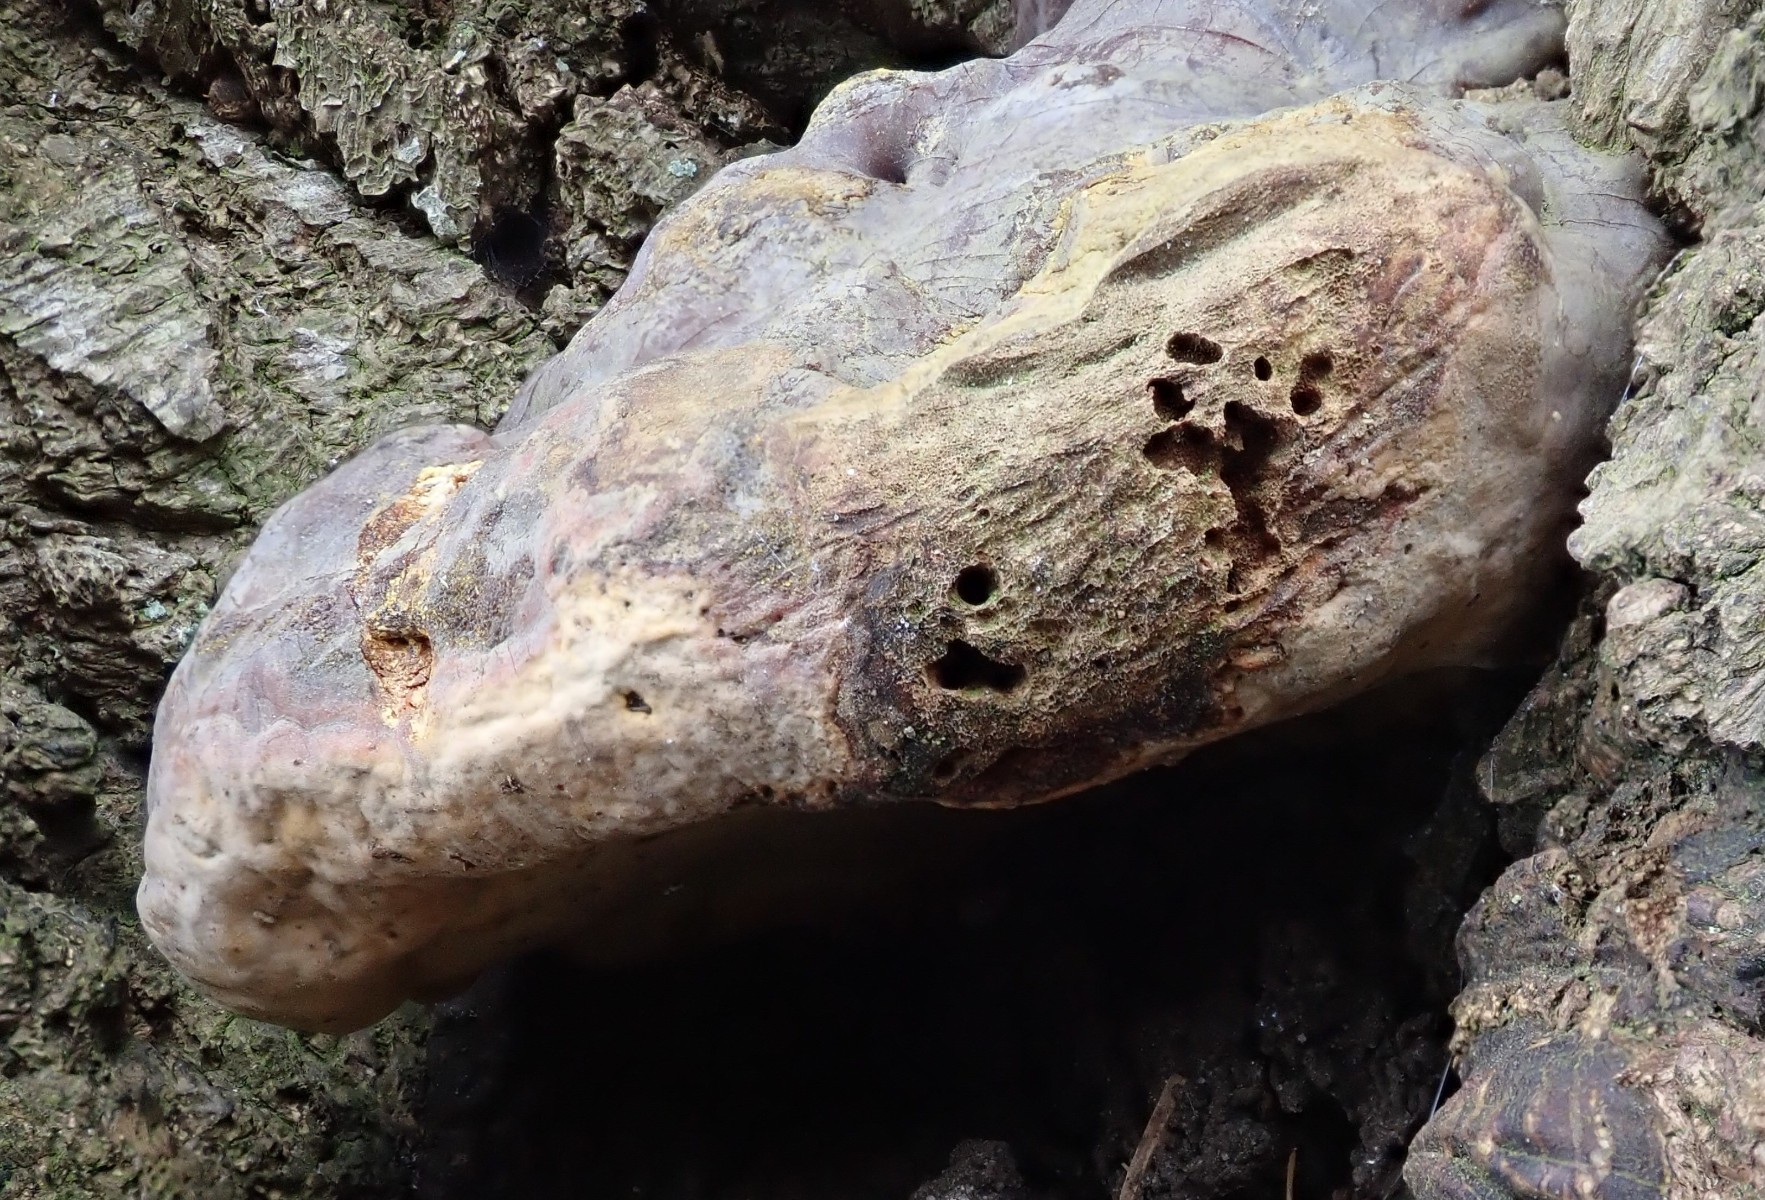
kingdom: Fungi
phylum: Basidiomycota
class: Agaricomycetes
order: Polyporales
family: Polyporaceae
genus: Ganoderma
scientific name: Ganoderma pfeifferi
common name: kobberrød lakporesvamp
